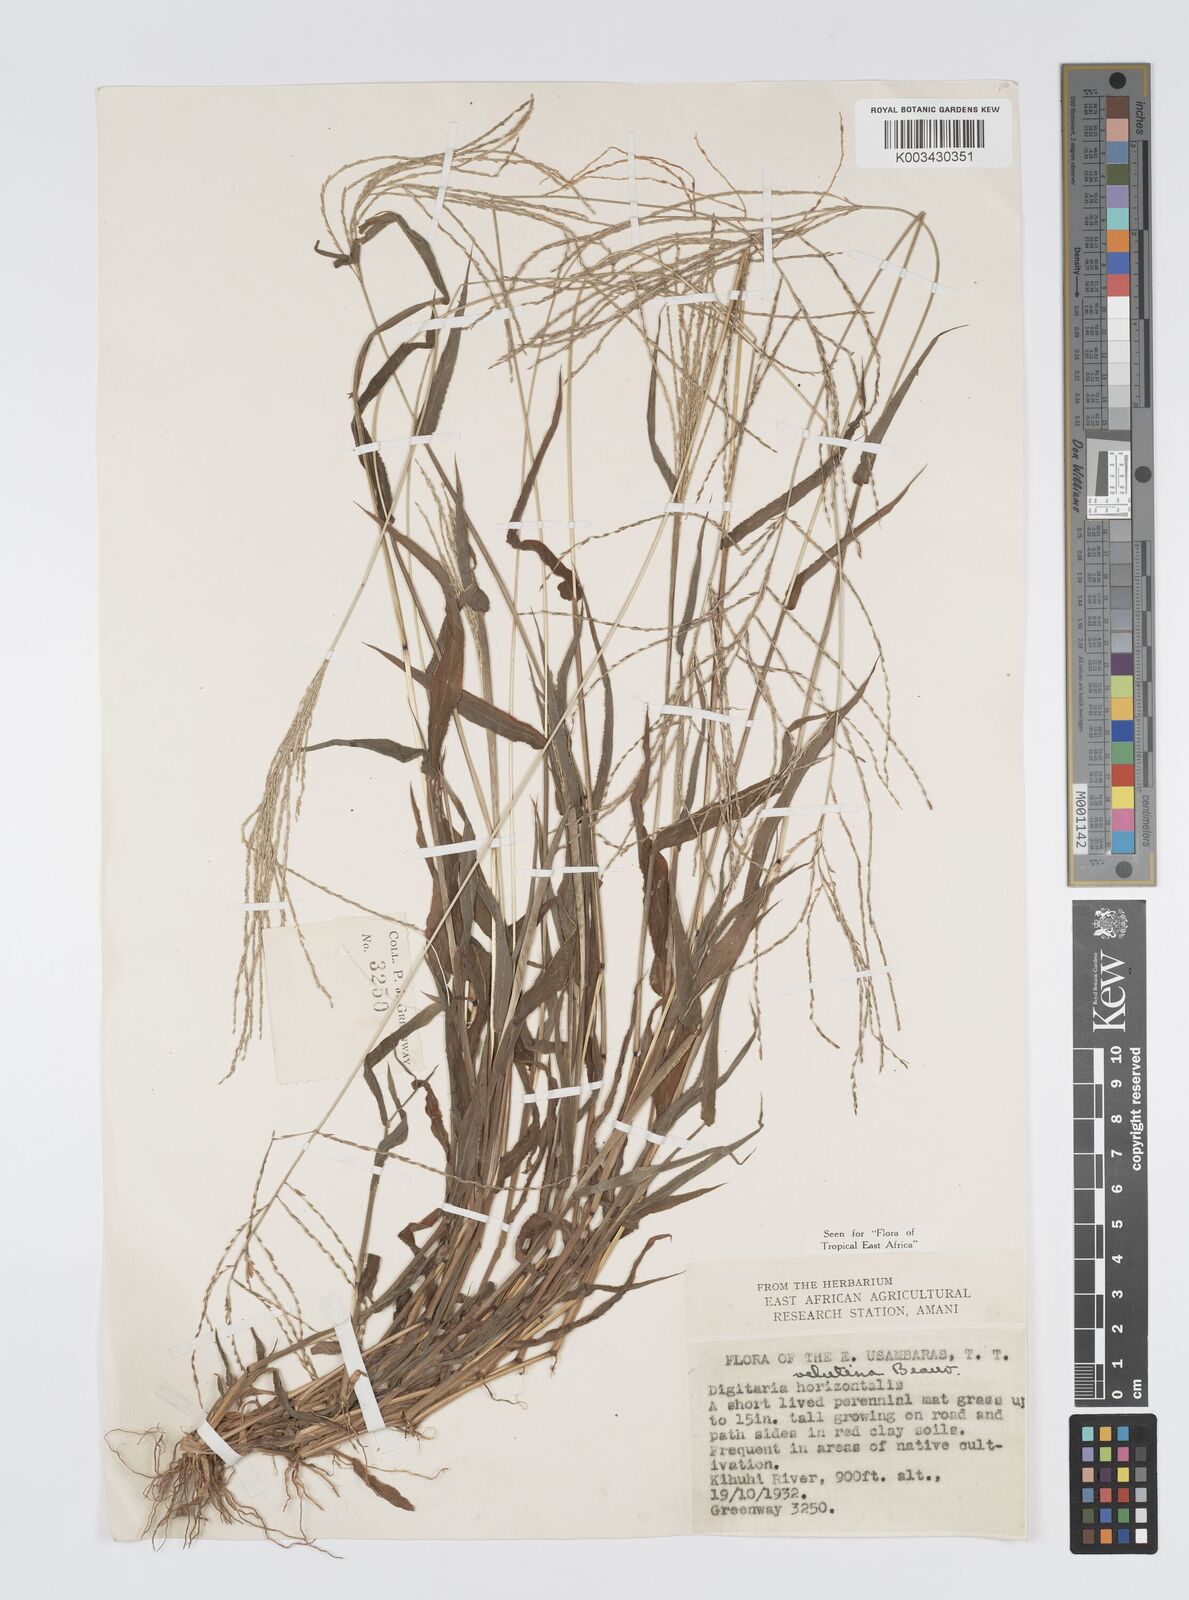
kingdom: Plantae
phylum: Tracheophyta
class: Liliopsida
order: Poales
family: Poaceae
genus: Digitaria
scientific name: Digitaria velutina
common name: Long-plume finger grass
